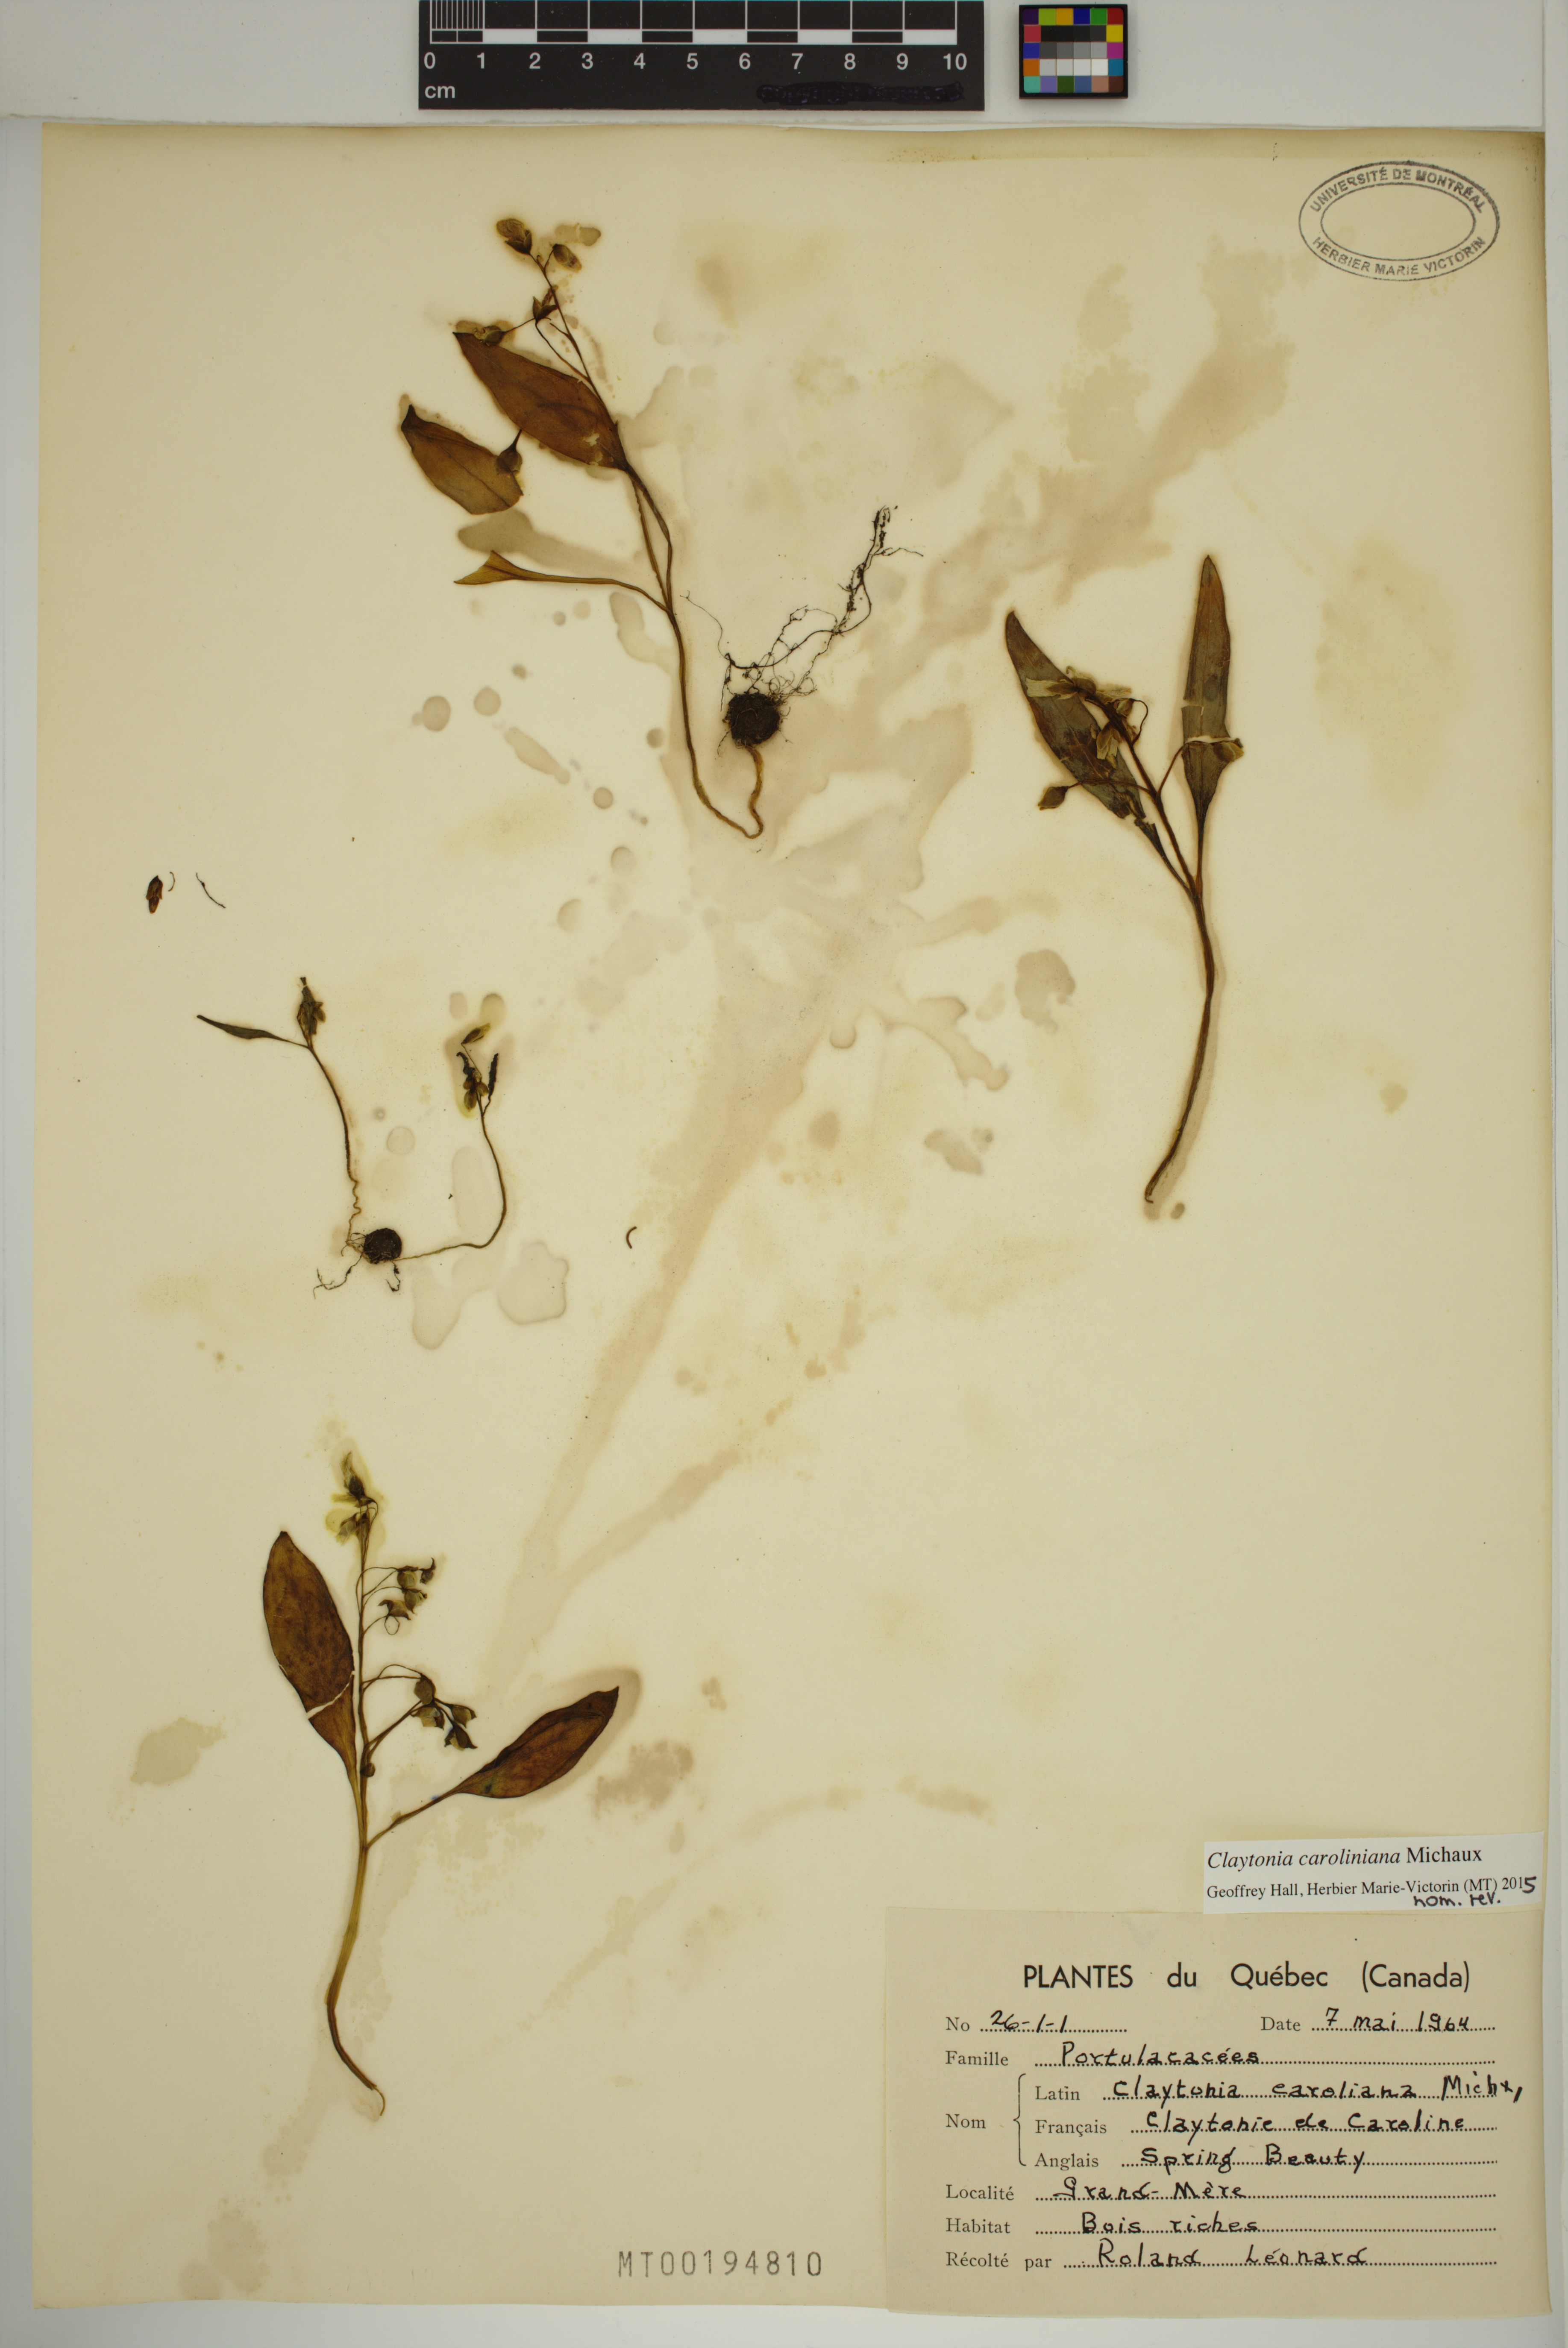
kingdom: Plantae
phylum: Tracheophyta
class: Magnoliopsida
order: Caryophyllales
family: Montiaceae
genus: Claytonia
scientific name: Claytonia caroliniana
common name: Carolina spring beauty
